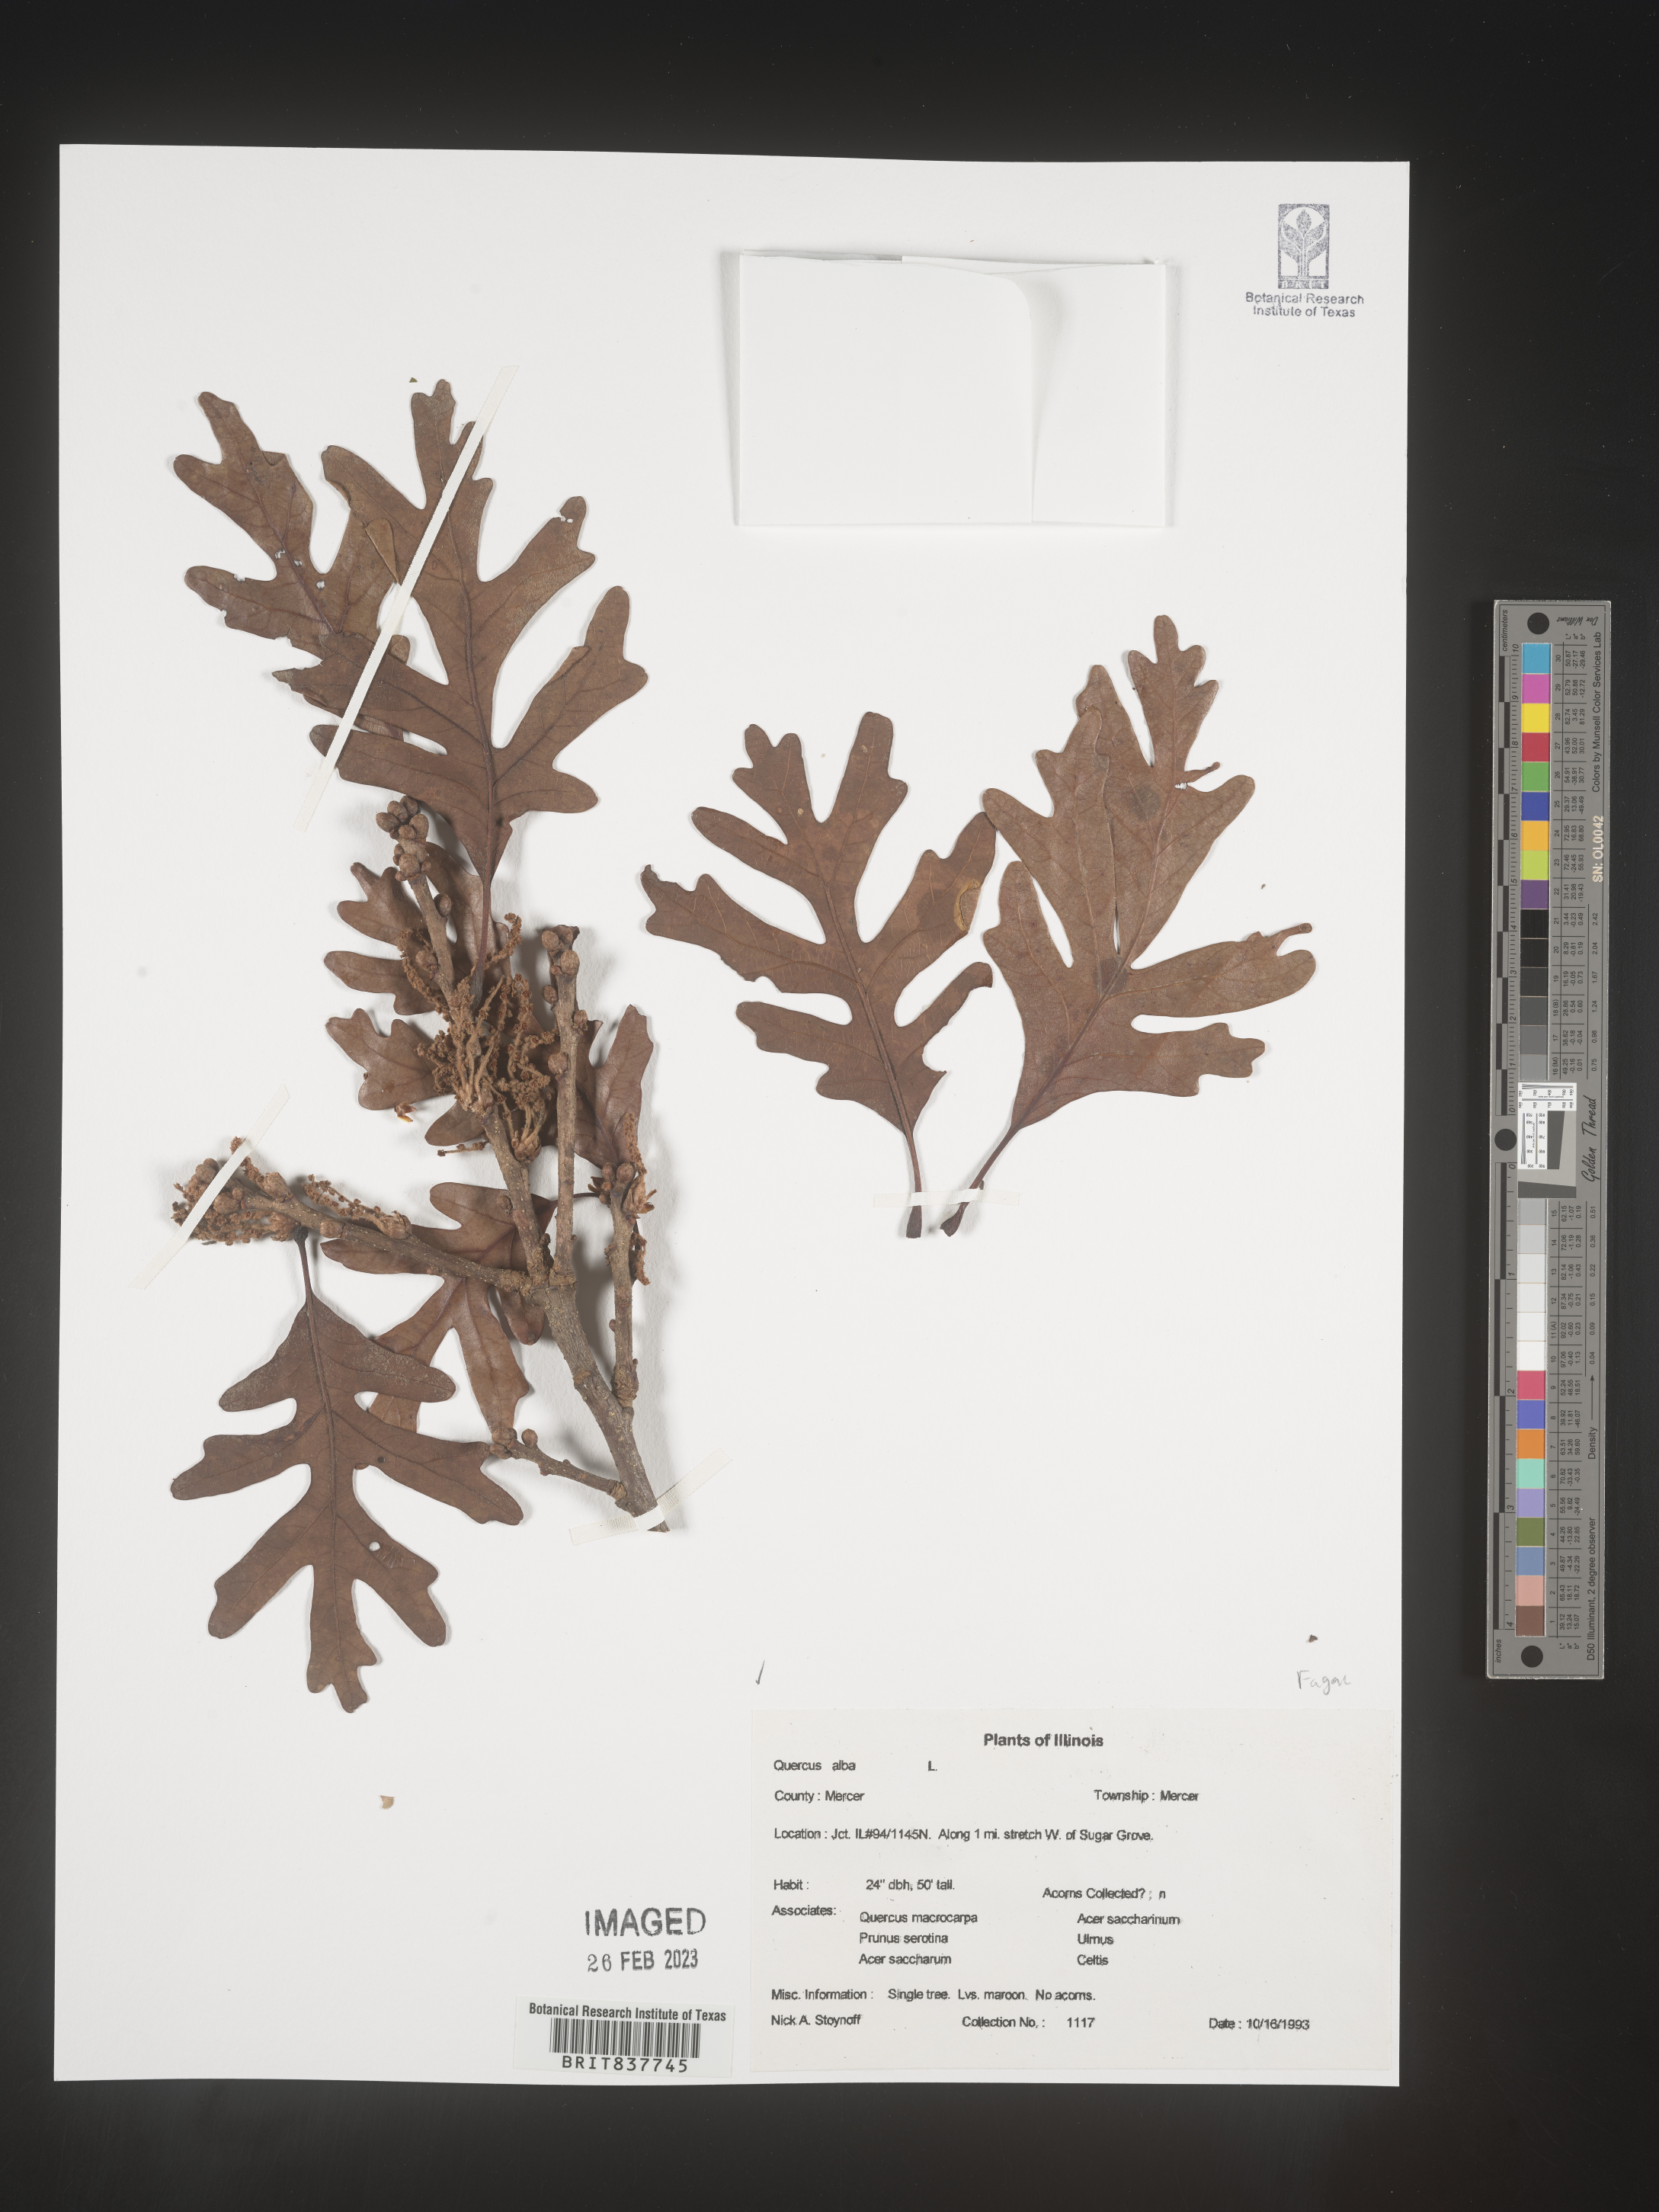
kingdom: Plantae
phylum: Tracheophyta
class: Magnoliopsida
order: Fagales
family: Fagaceae
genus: Quercus
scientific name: Quercus alba
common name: White oak
